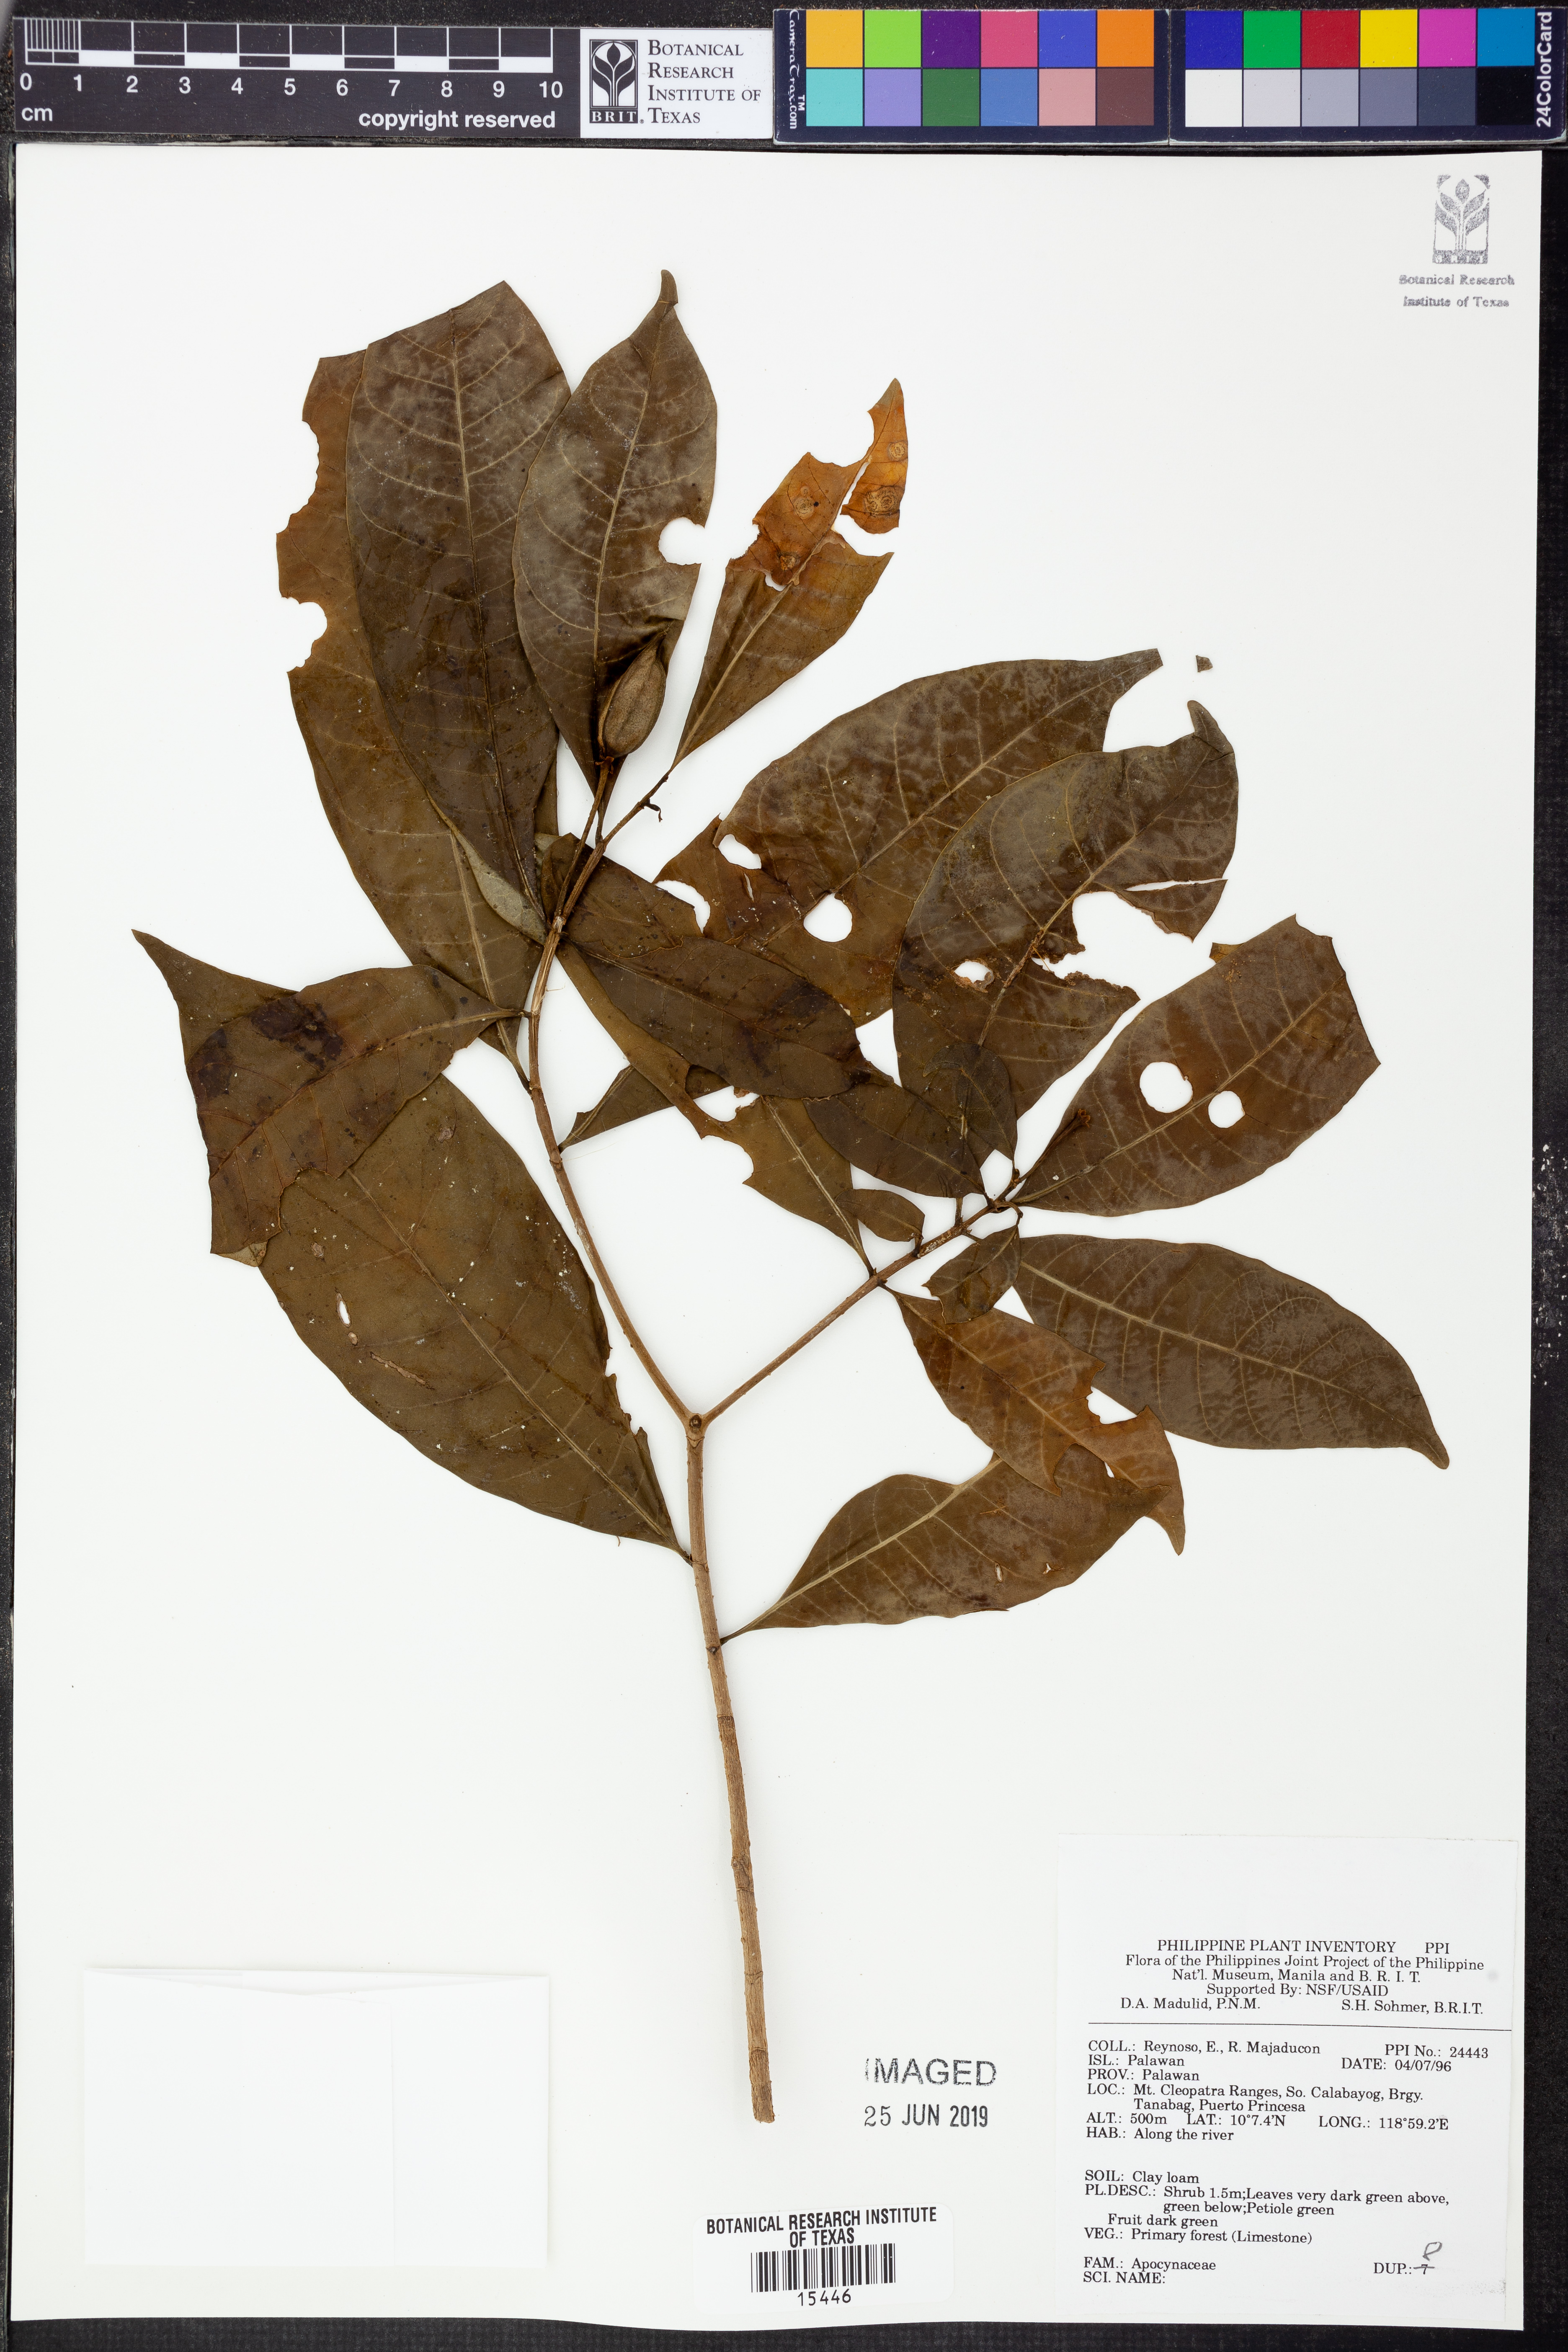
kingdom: Plantae
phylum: Tracheophyta
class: Magnoliopsida
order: Gentianales
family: Apocynaceae
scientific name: Apocynaceae
